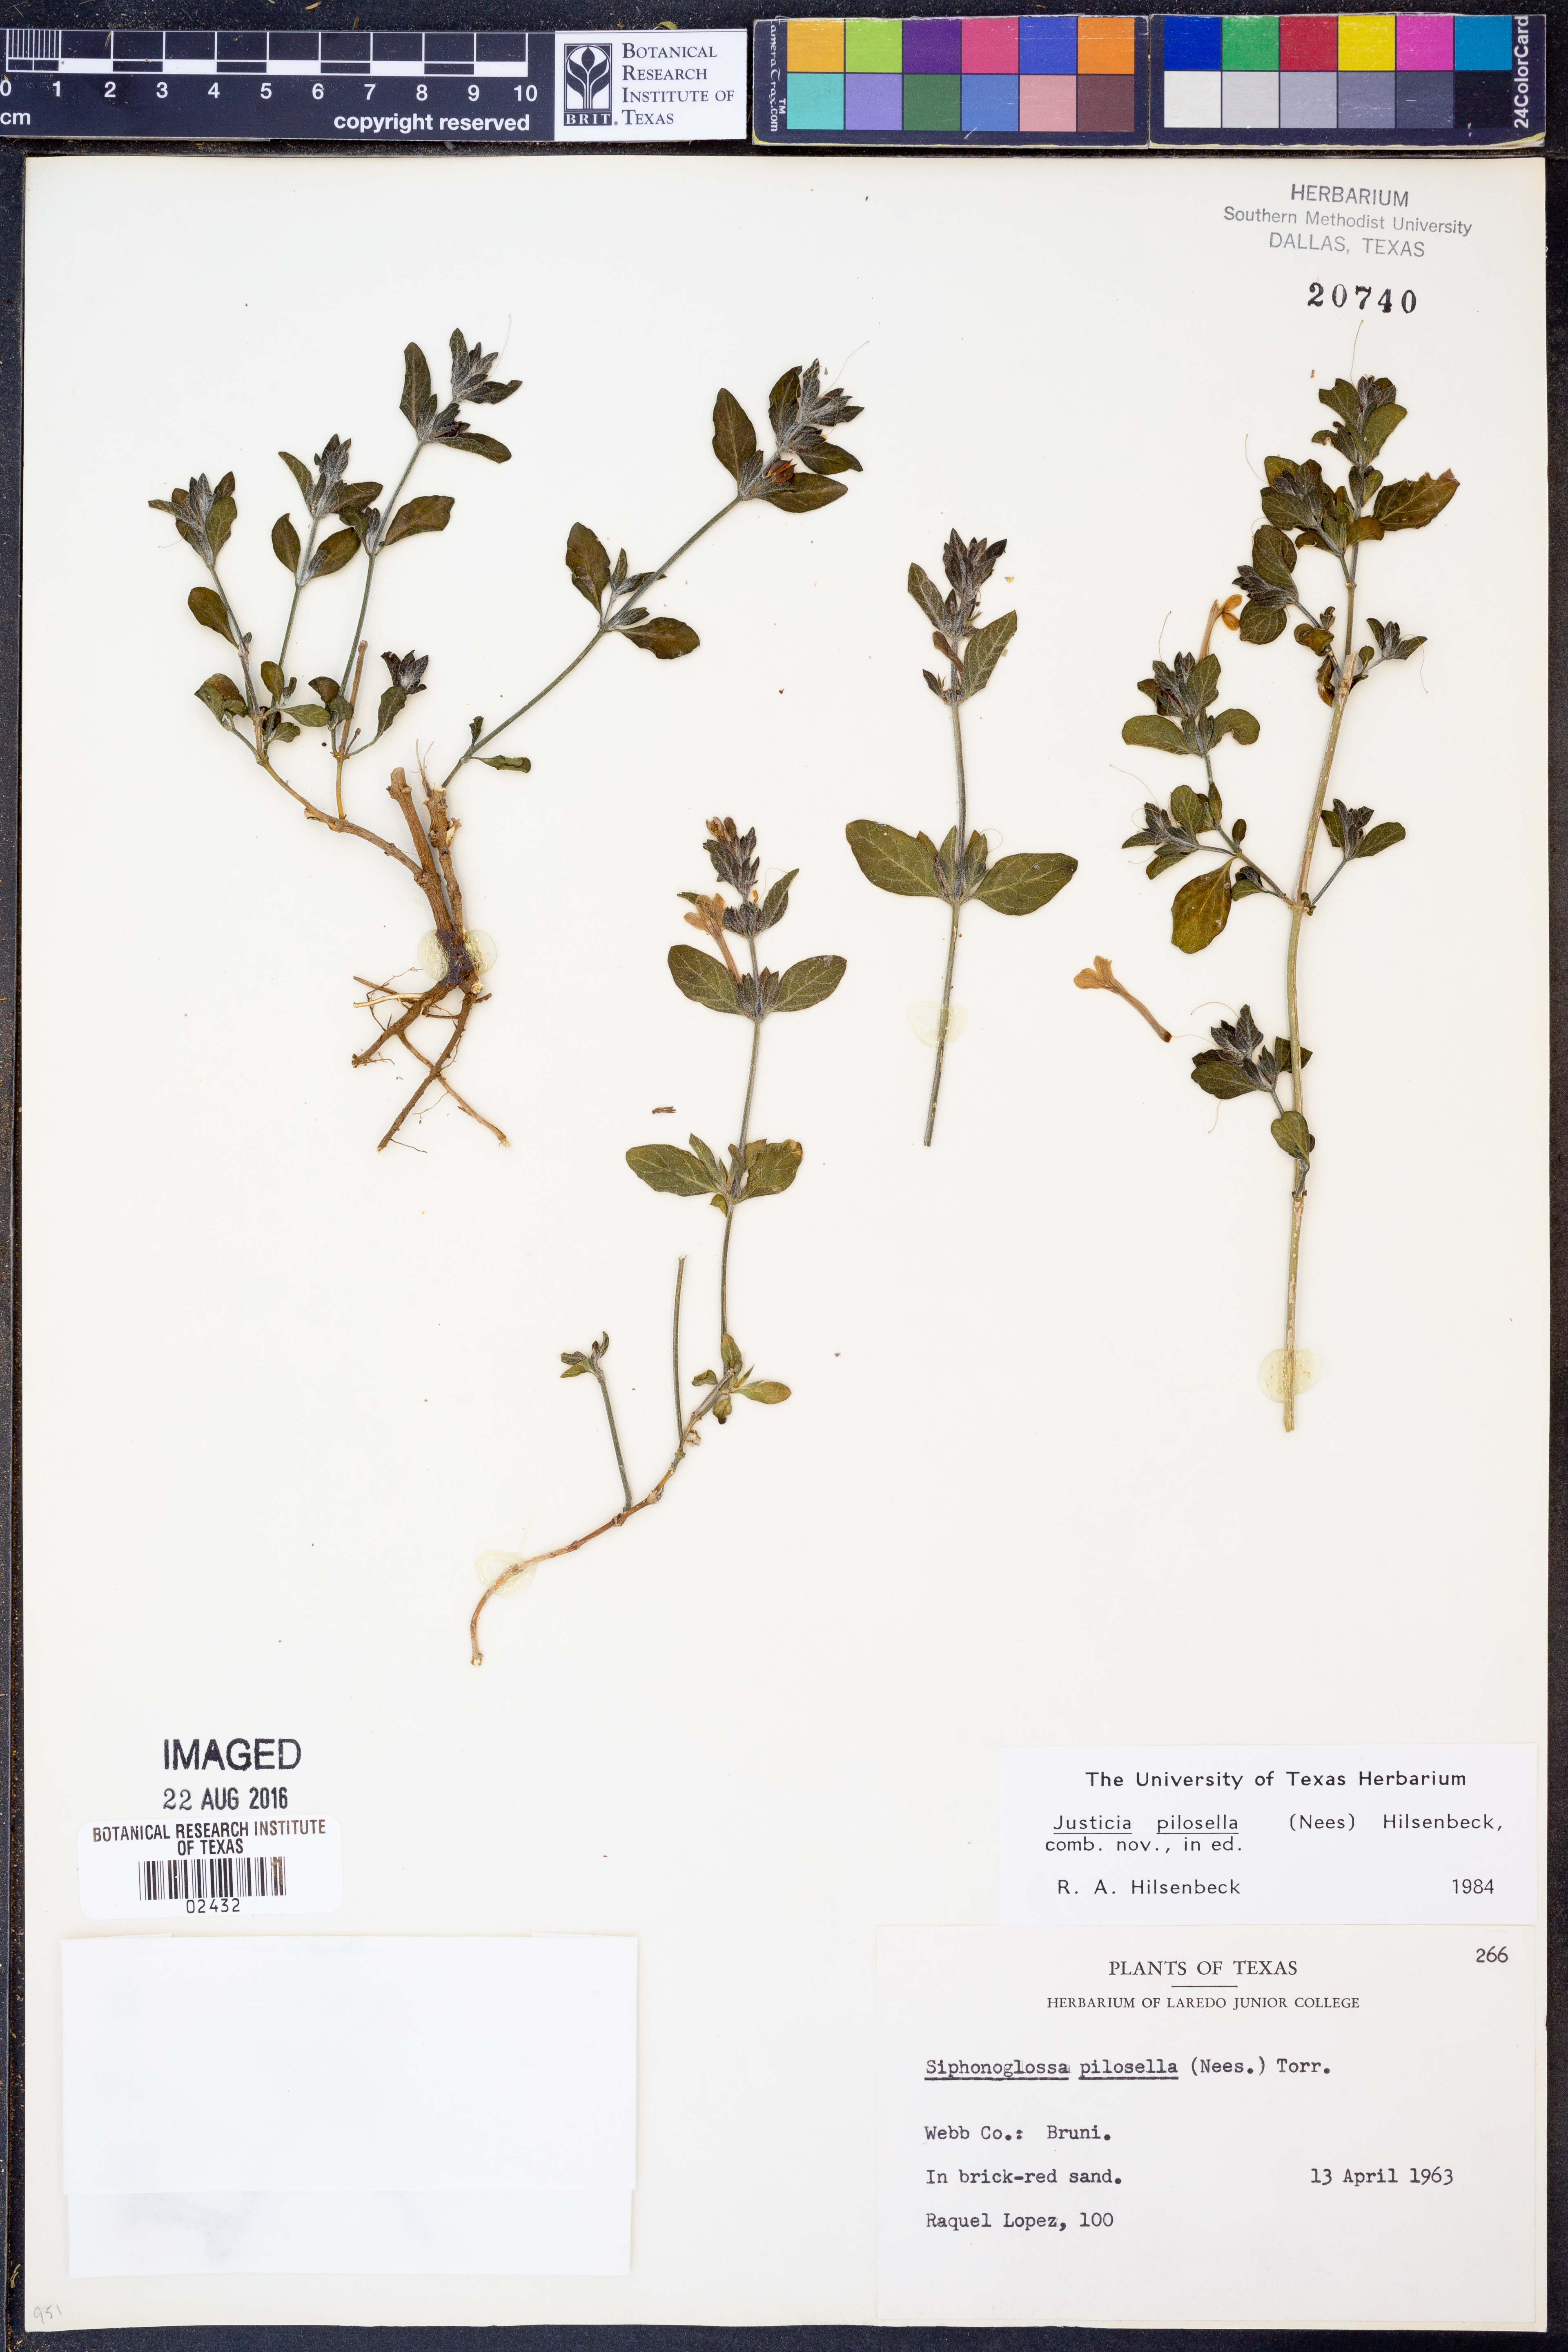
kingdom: Plantae
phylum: Tracheophyta
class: Magnoliopsida
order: Lamiales
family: Acanthaceae
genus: Justicia
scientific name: Justicia pilosella
